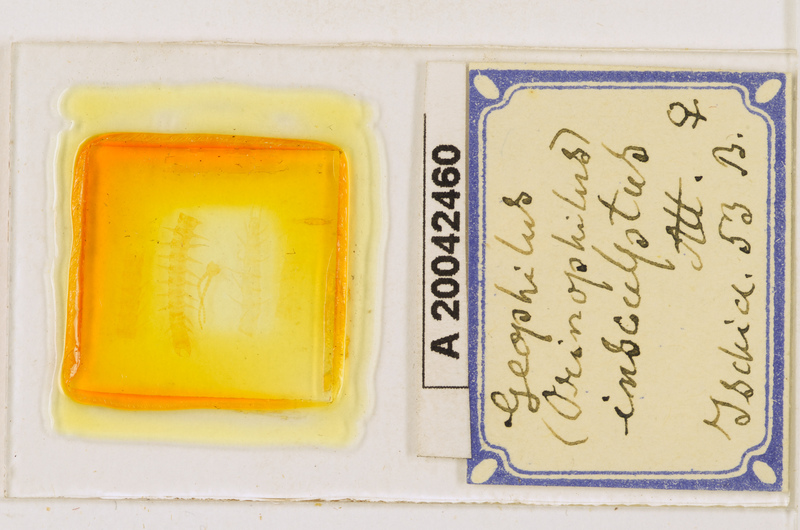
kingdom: Animalia
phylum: Arthropoda
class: Chilopoda
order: Geophilomorpha
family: Geophilidae
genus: Geophilus
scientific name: Geophilus insculptus
